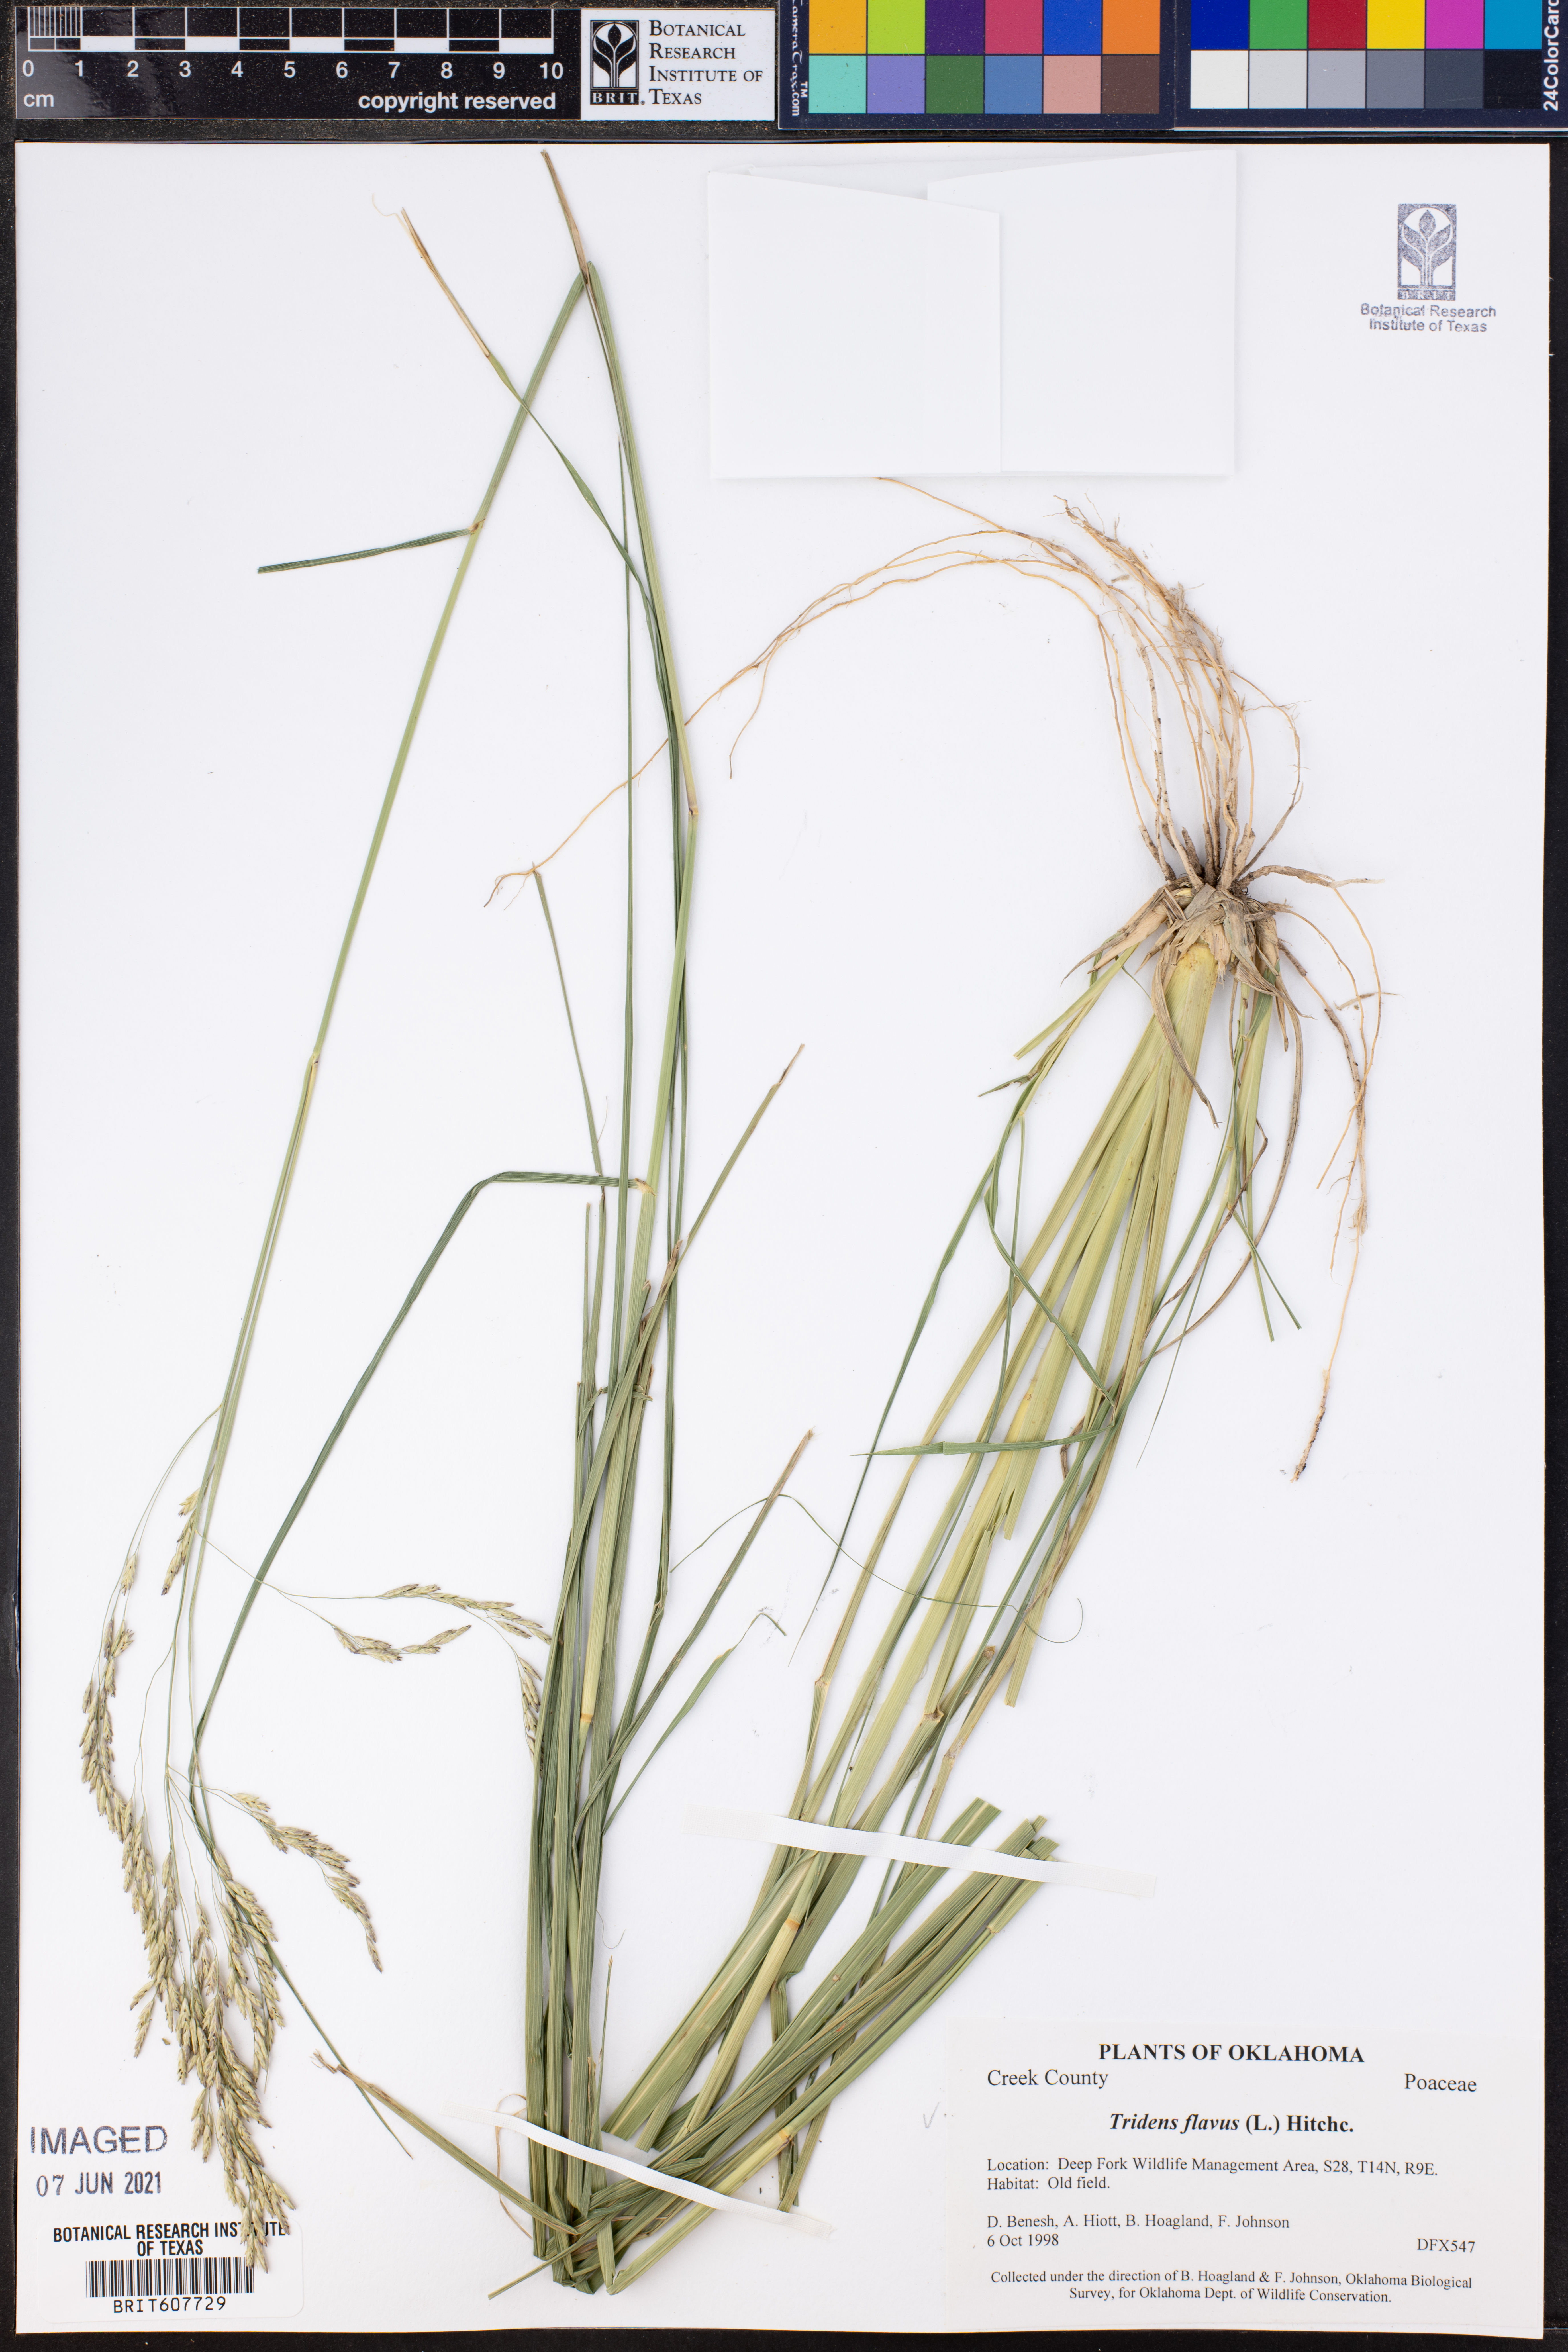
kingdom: Plantae
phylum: Tracheophyta
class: Liliopsida
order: Poales
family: Poaceae
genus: Tridens
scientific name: Tridens flavus
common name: Purpletop
